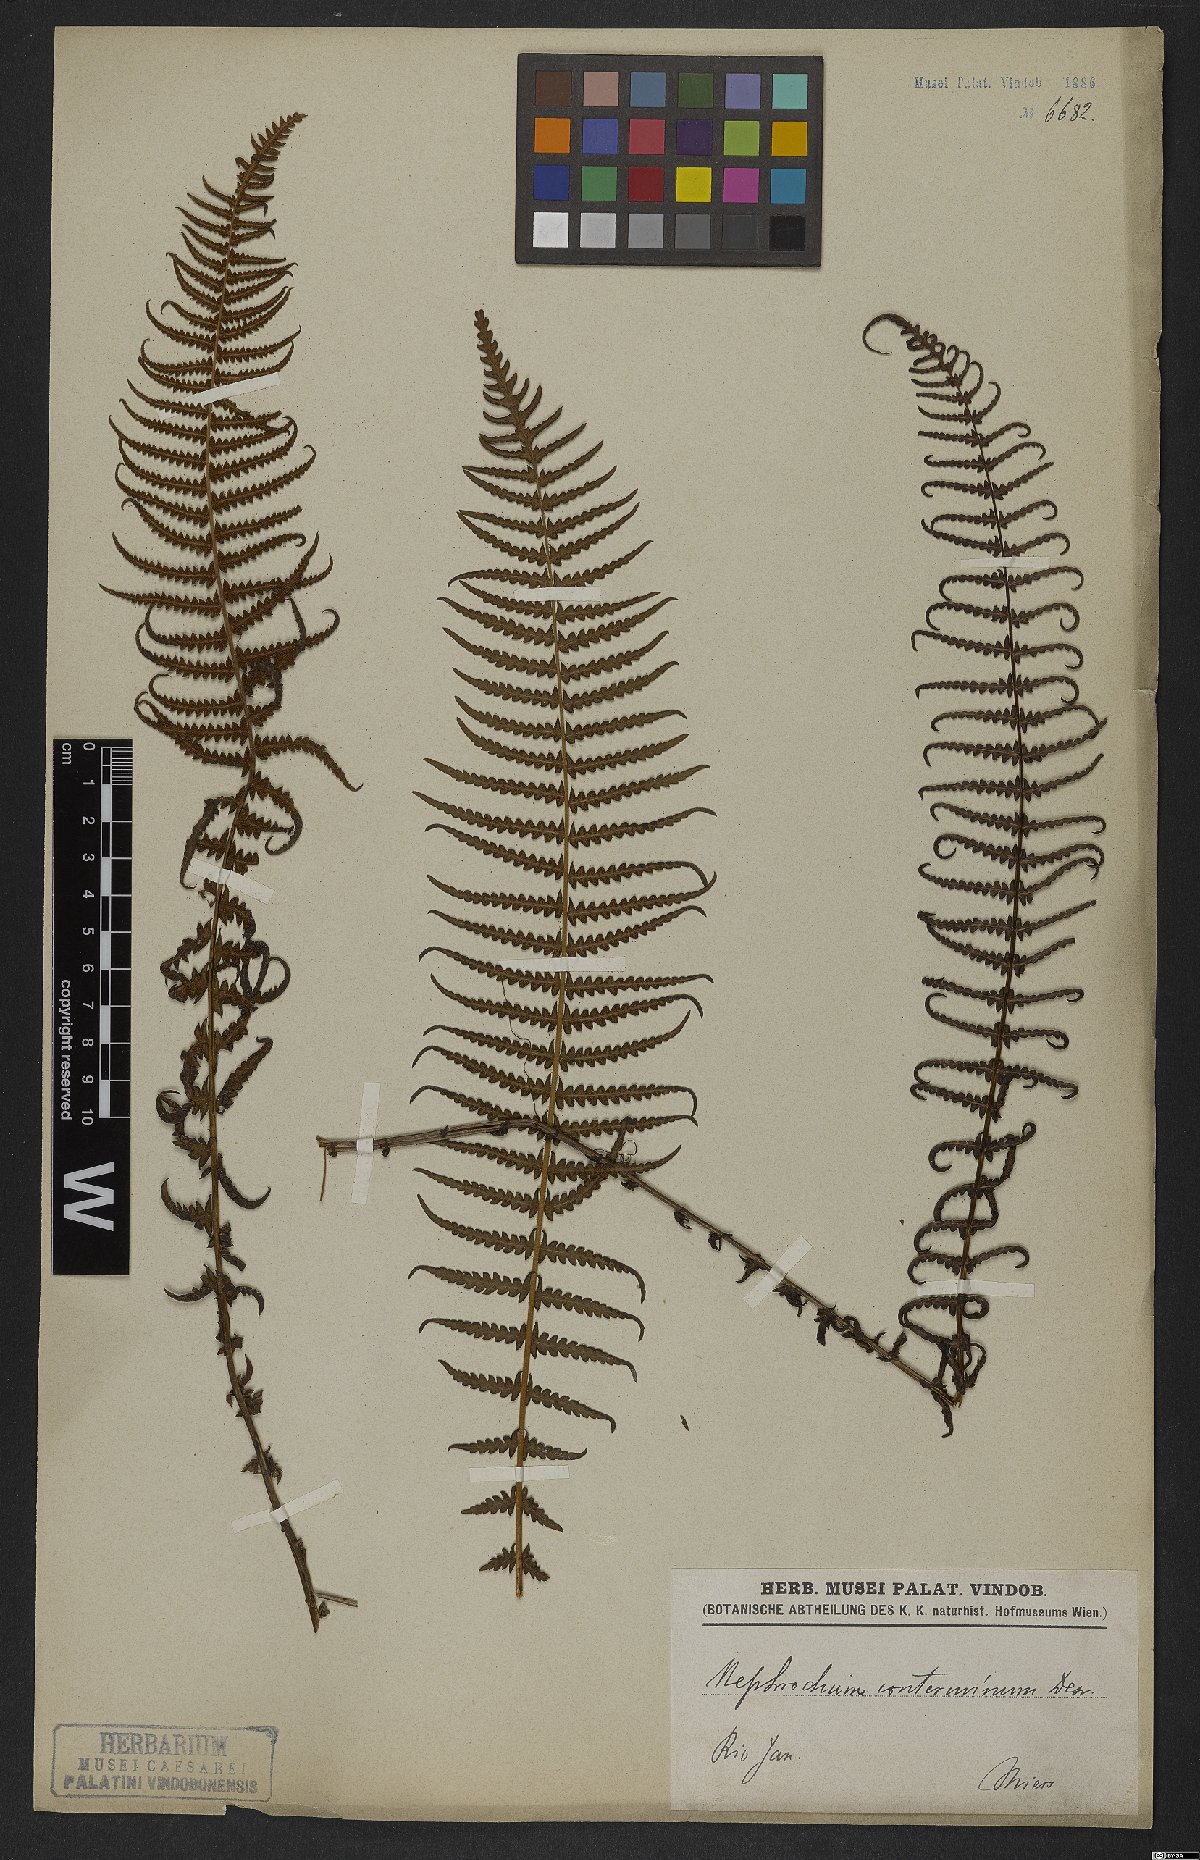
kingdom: Plantae
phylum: Tracheophyta
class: Polypodiopsida
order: Polypodiales
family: Thelypteridaceae
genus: Amauropelta
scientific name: Amauropelta opposita
